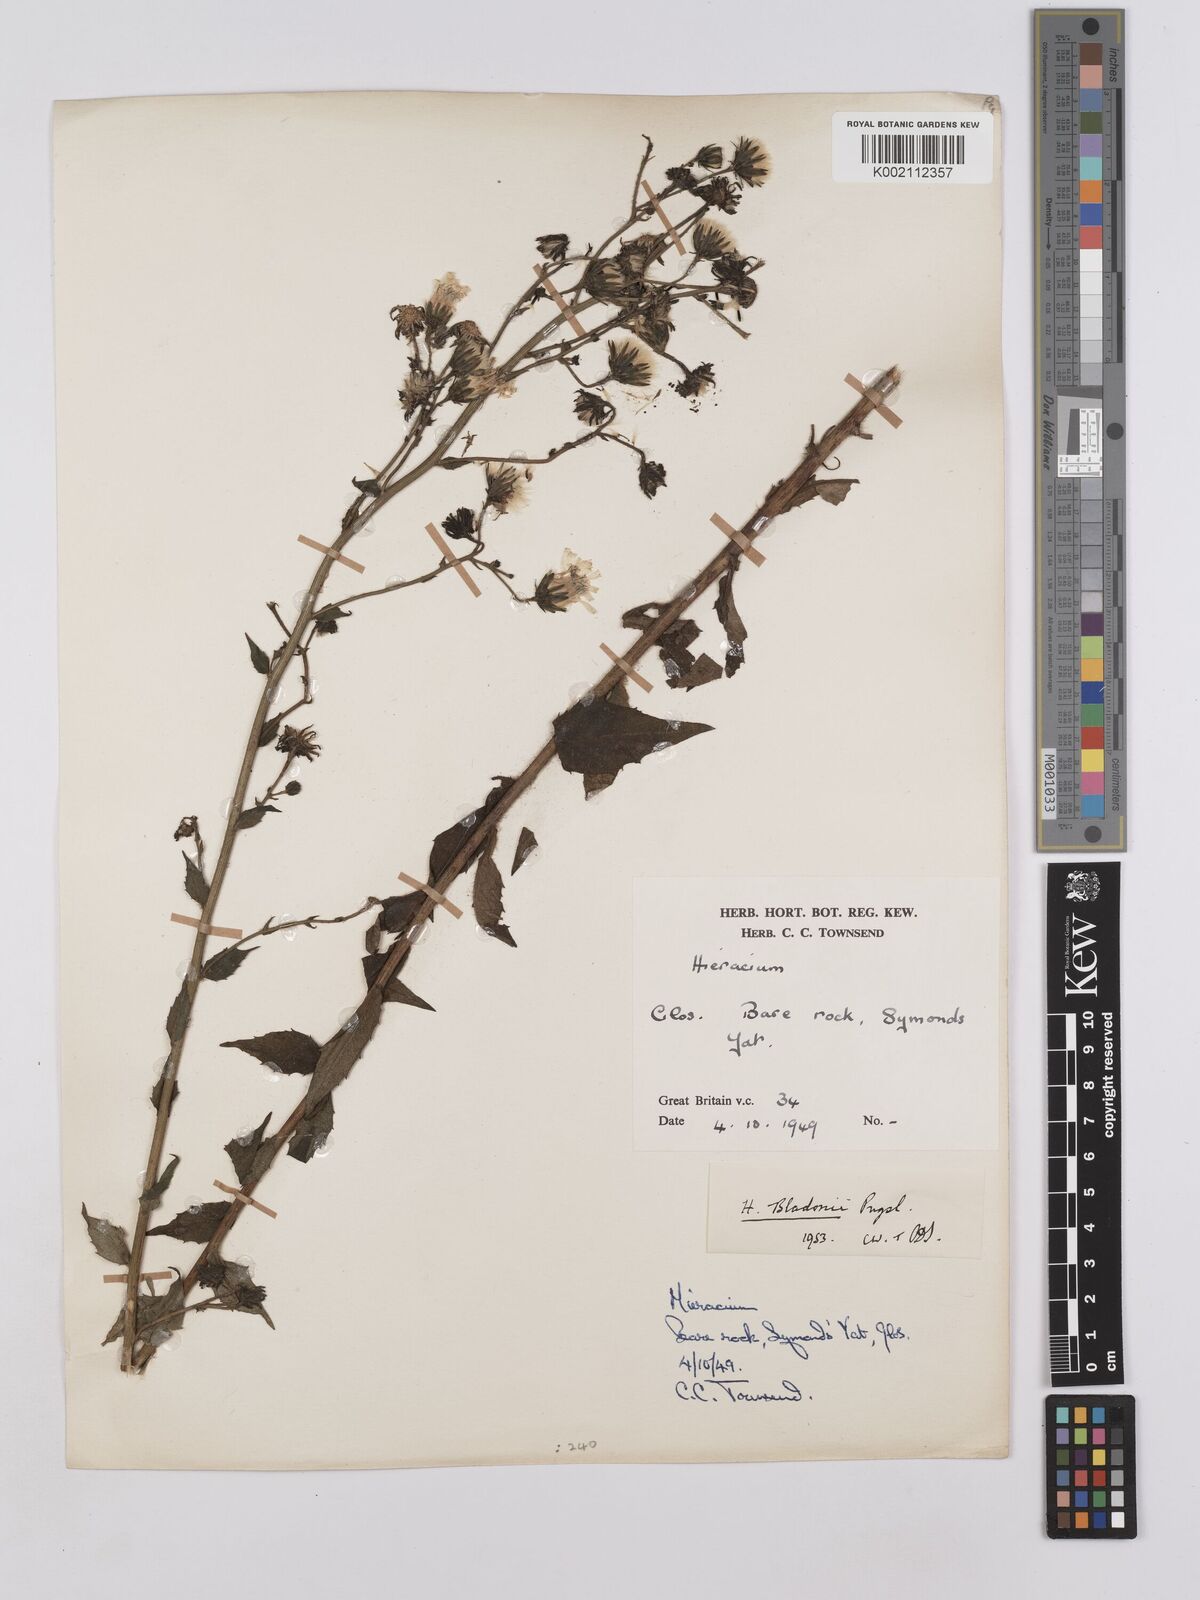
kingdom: Plantae
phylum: Tracheophyta
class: Magnoliopsida
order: Asterales
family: Asteraceae
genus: Hieracium
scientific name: Hieracium sabaudum
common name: New england hawkweed
